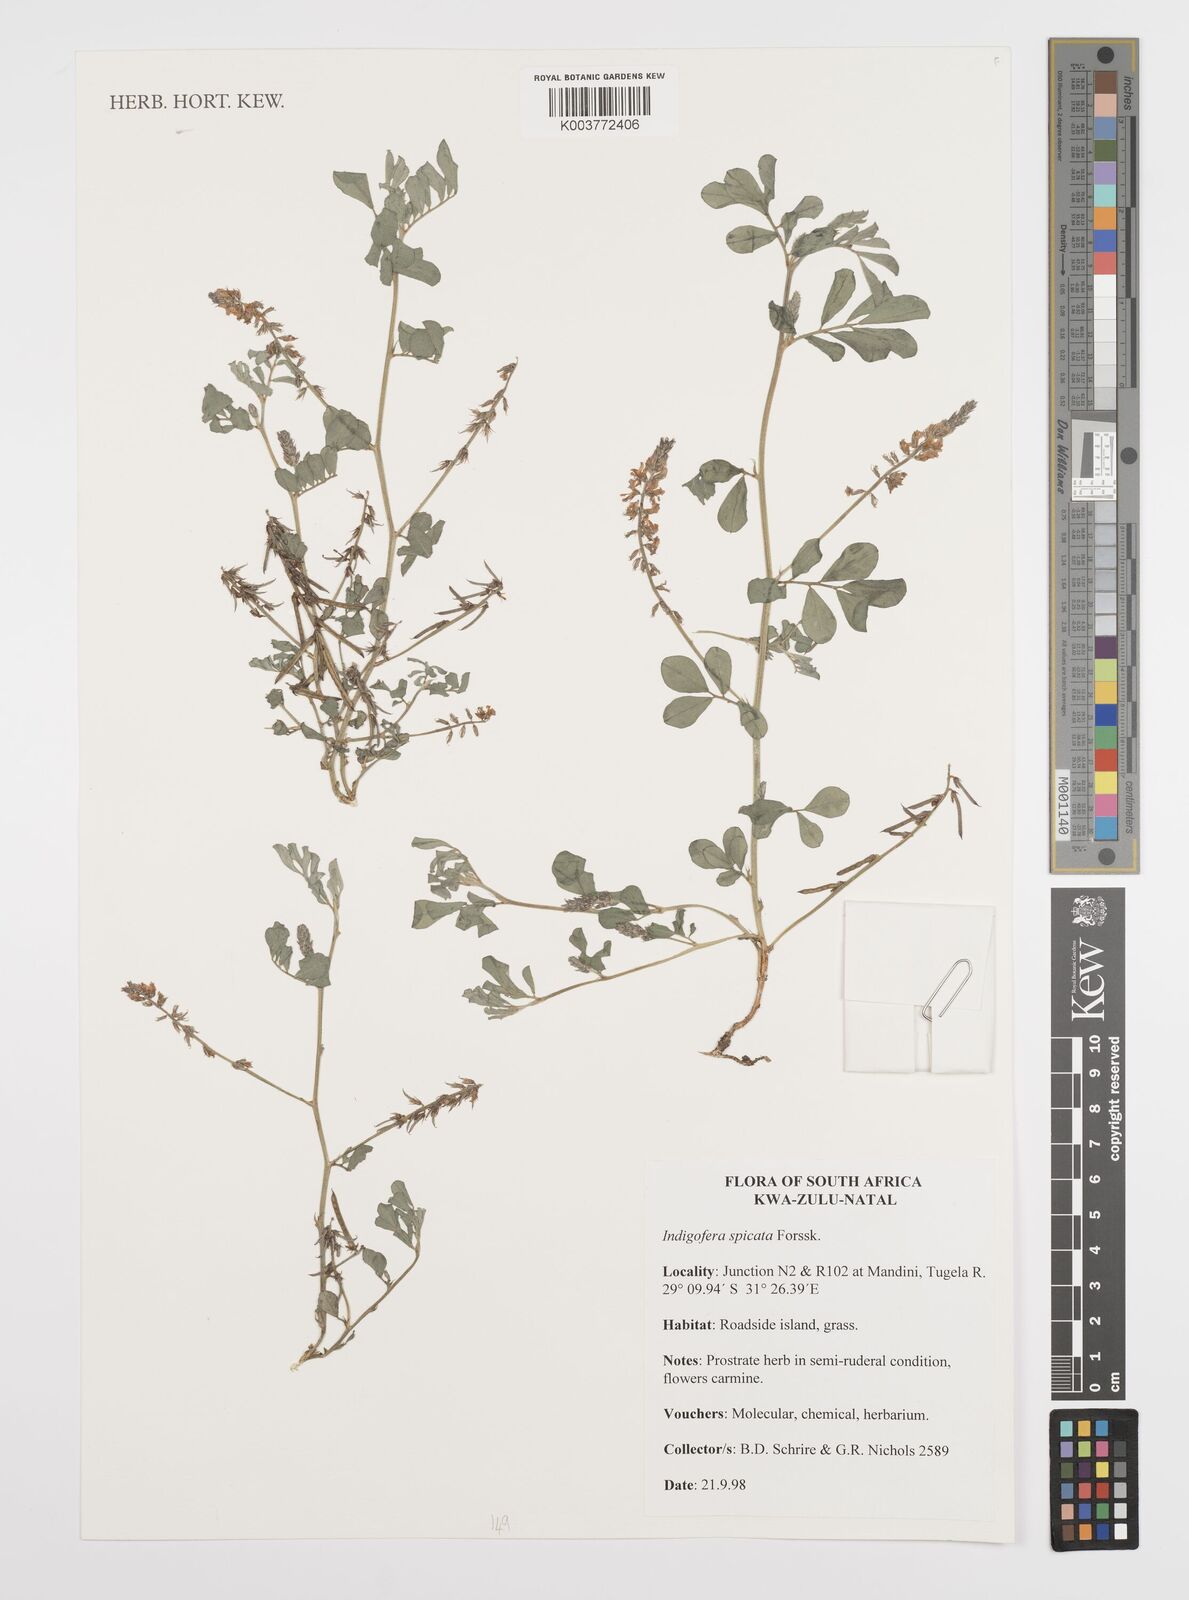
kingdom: Plantae
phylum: Tracheophyta
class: Magnoliopsida
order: Fabales
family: Fabaceae
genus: Indigofera
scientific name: Indigofera spicata
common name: Creeping indigo
